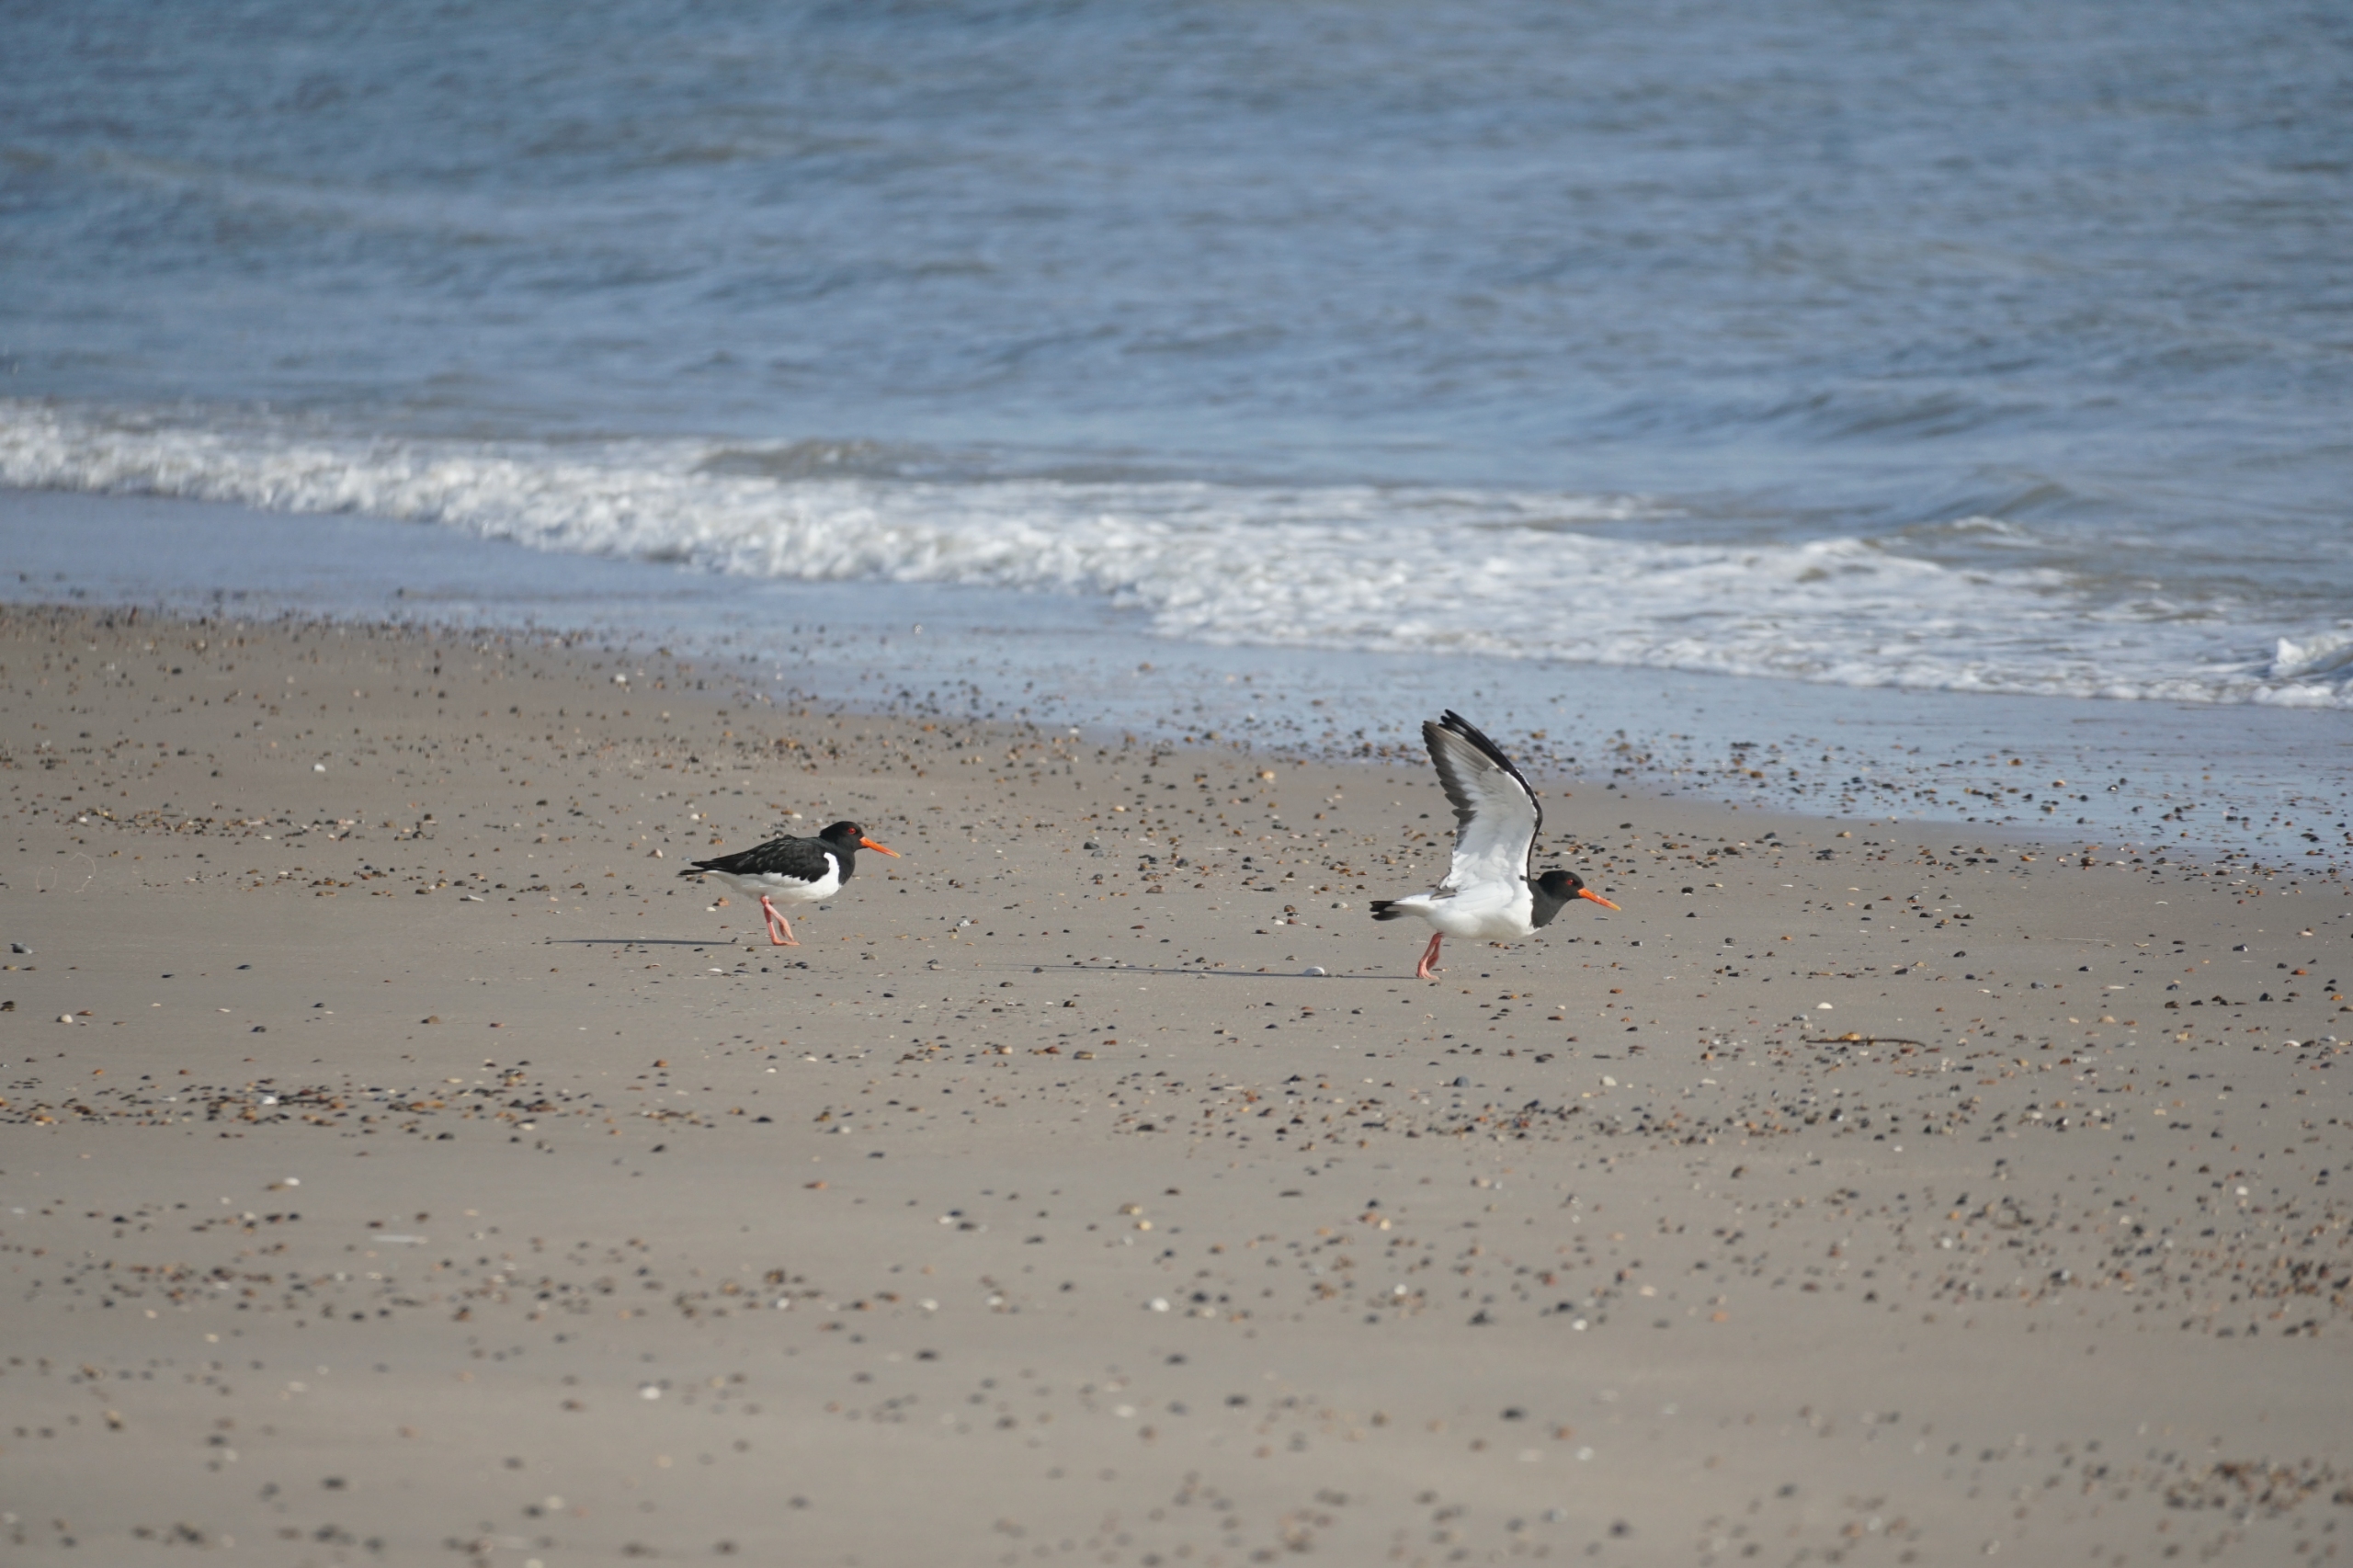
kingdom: Animalia
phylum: Chordata
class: Aves
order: Charadriiformes
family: Haematopodidae
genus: Haematopus
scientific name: Haematopus ostralegus
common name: Strandskade
